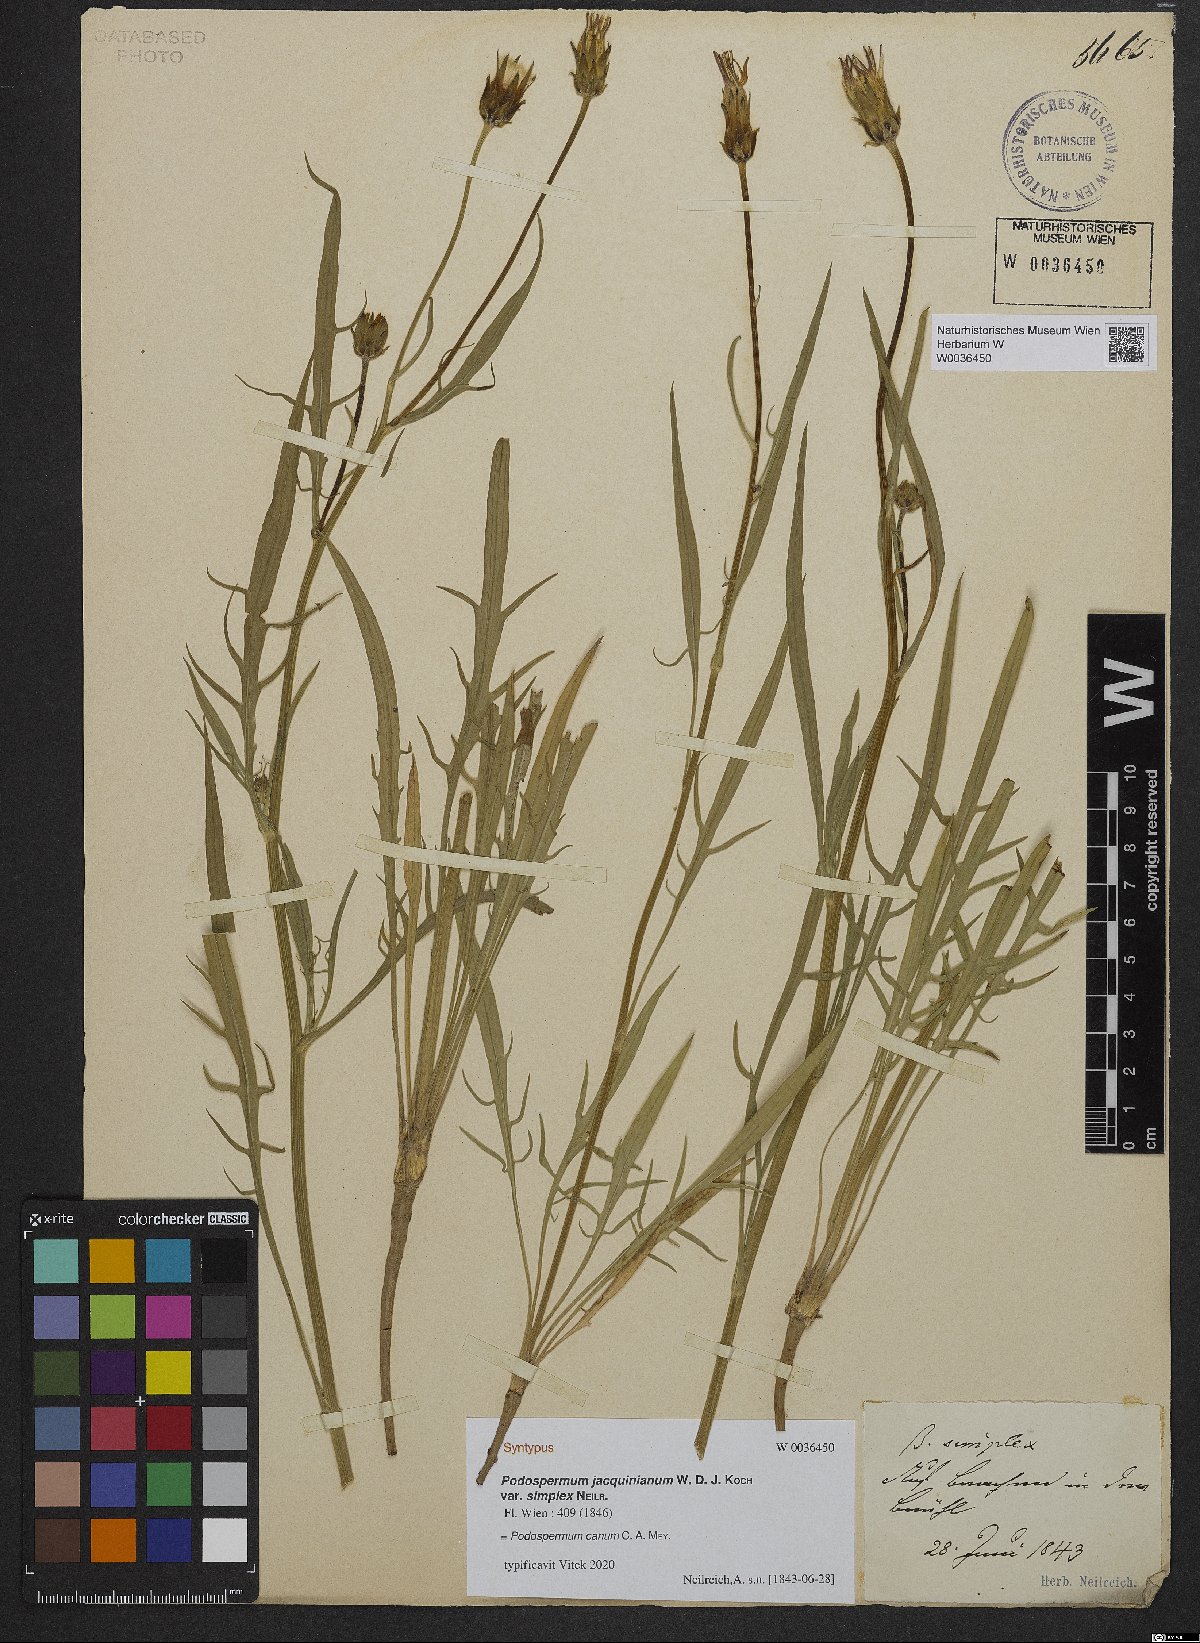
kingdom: Plantae
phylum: Tracheophyta
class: Magnoliopsida
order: Asterales
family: Asteraceae
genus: Scorzonera
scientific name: Scorzonera cana
